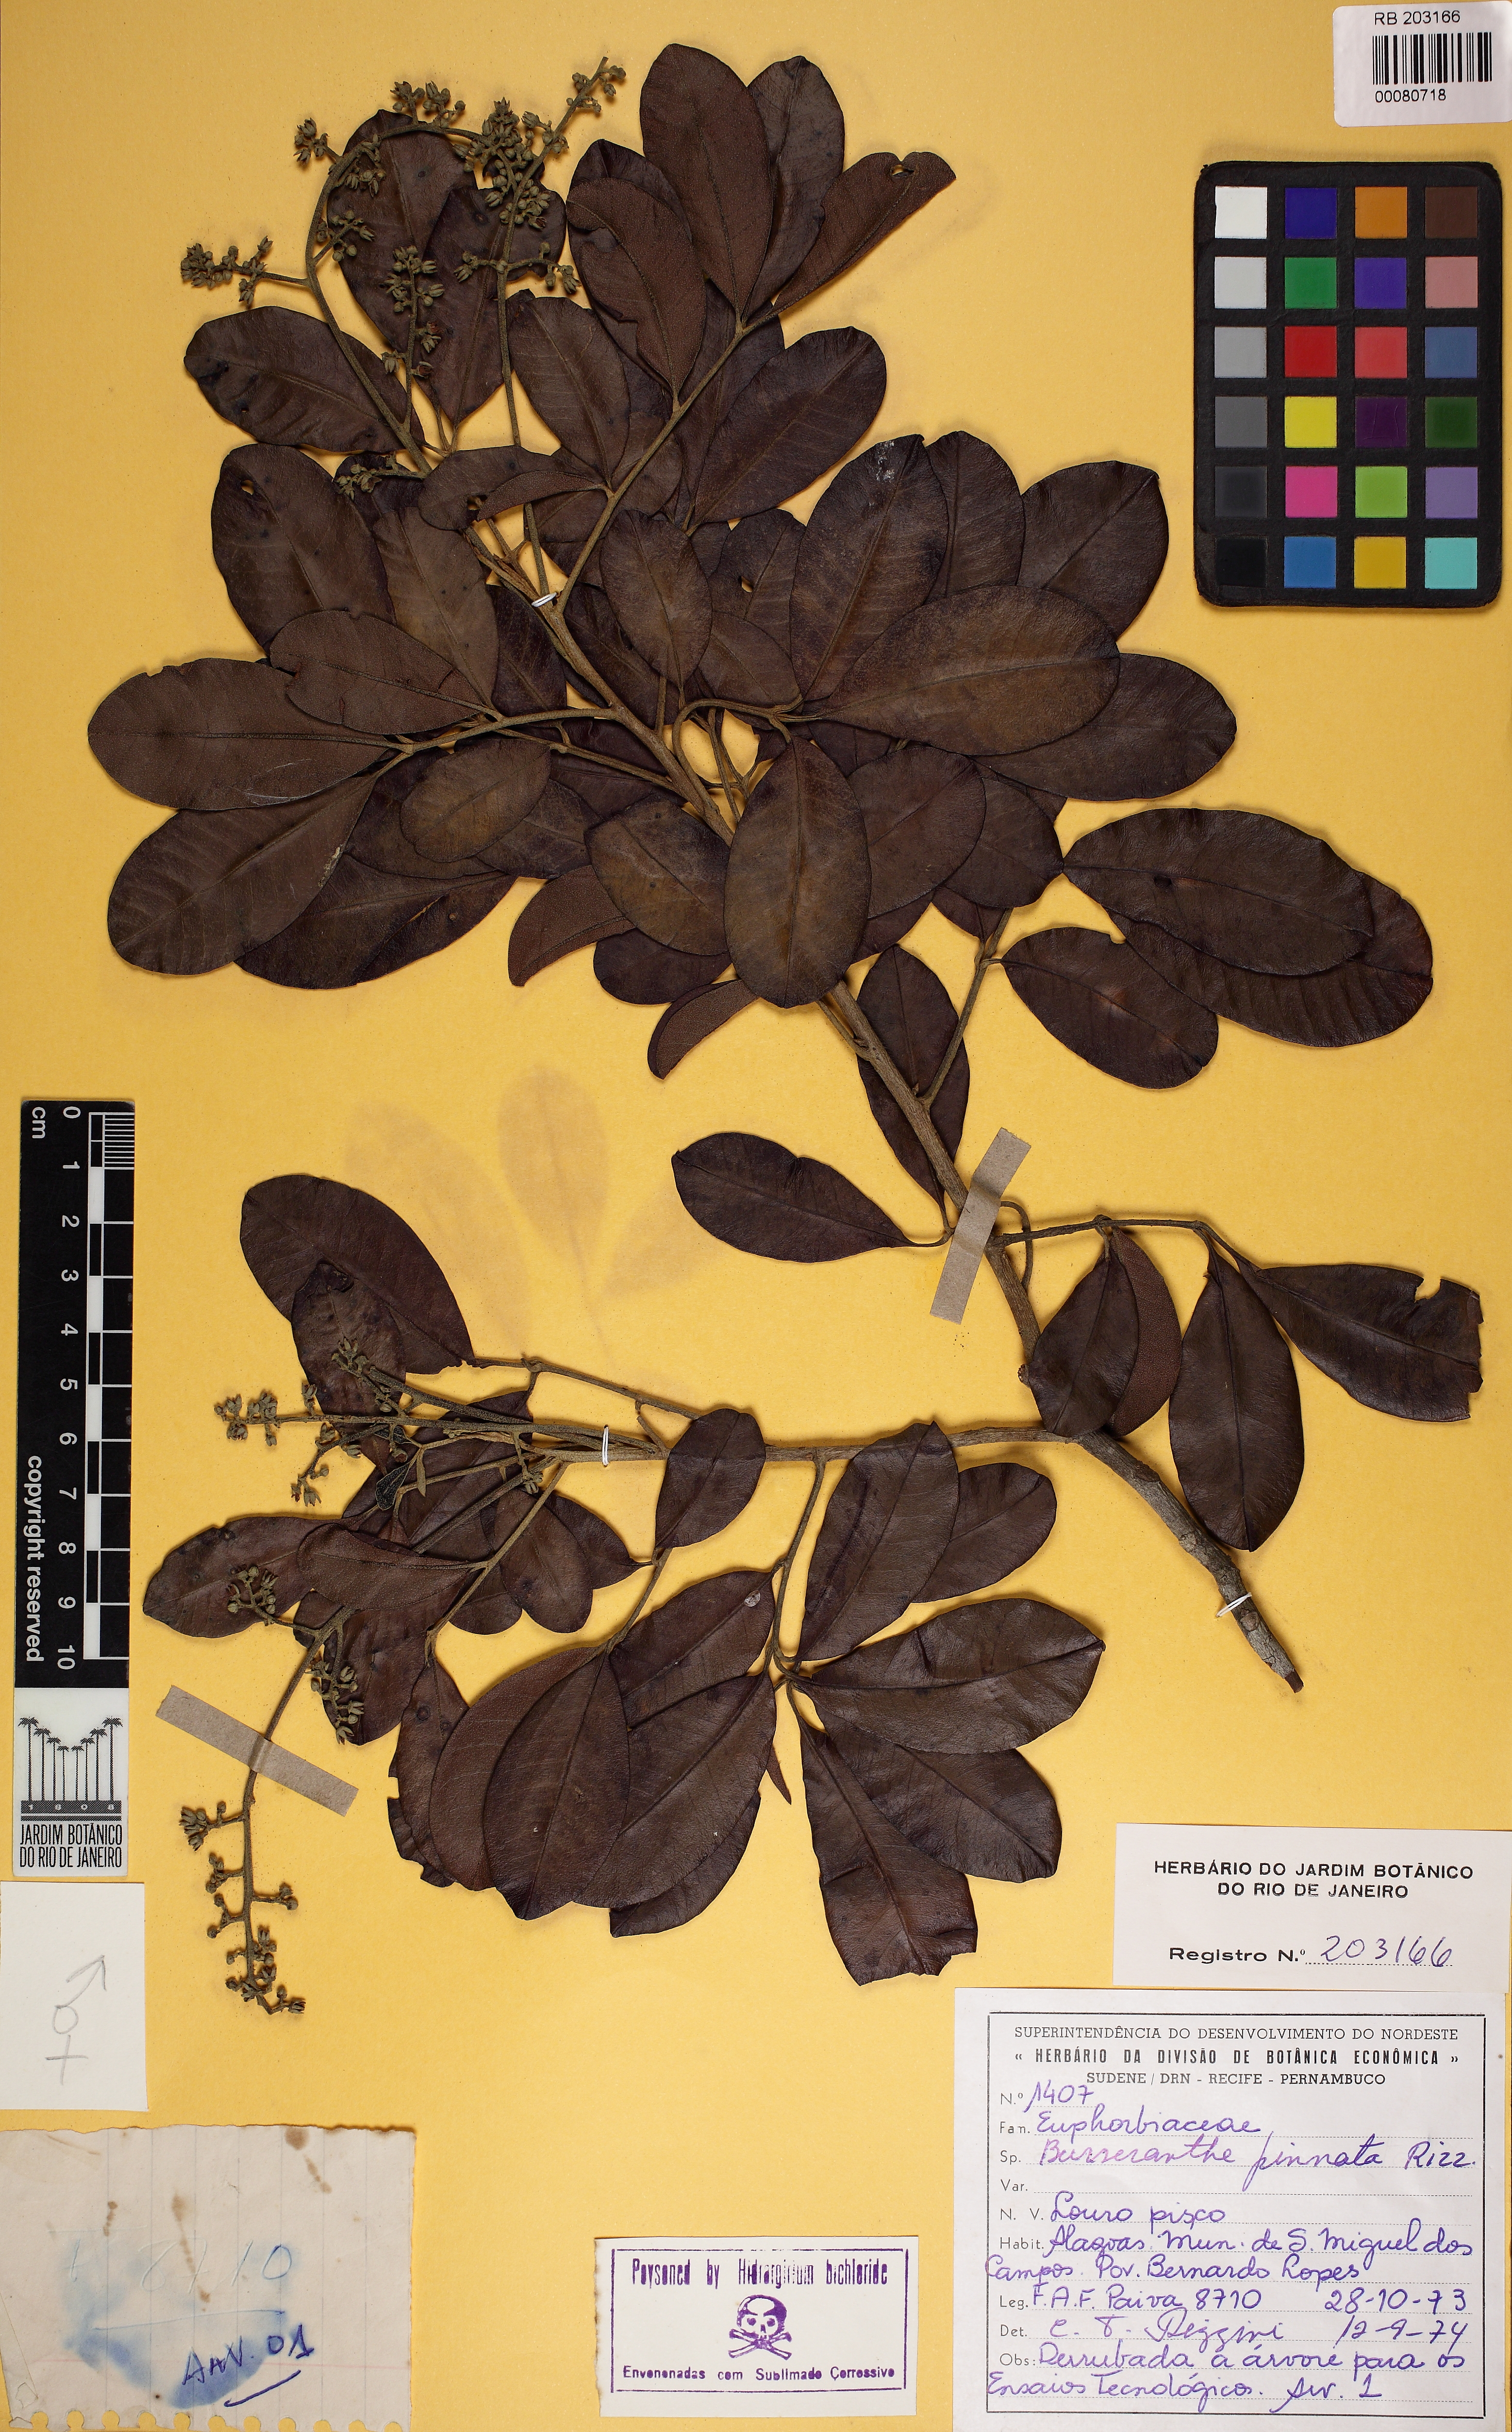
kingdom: Plantae
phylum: Tracheophyta
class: Magnoliopsida
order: Sapindales
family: Meliaceae
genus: Trichilia
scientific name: Trichilia lepidota
